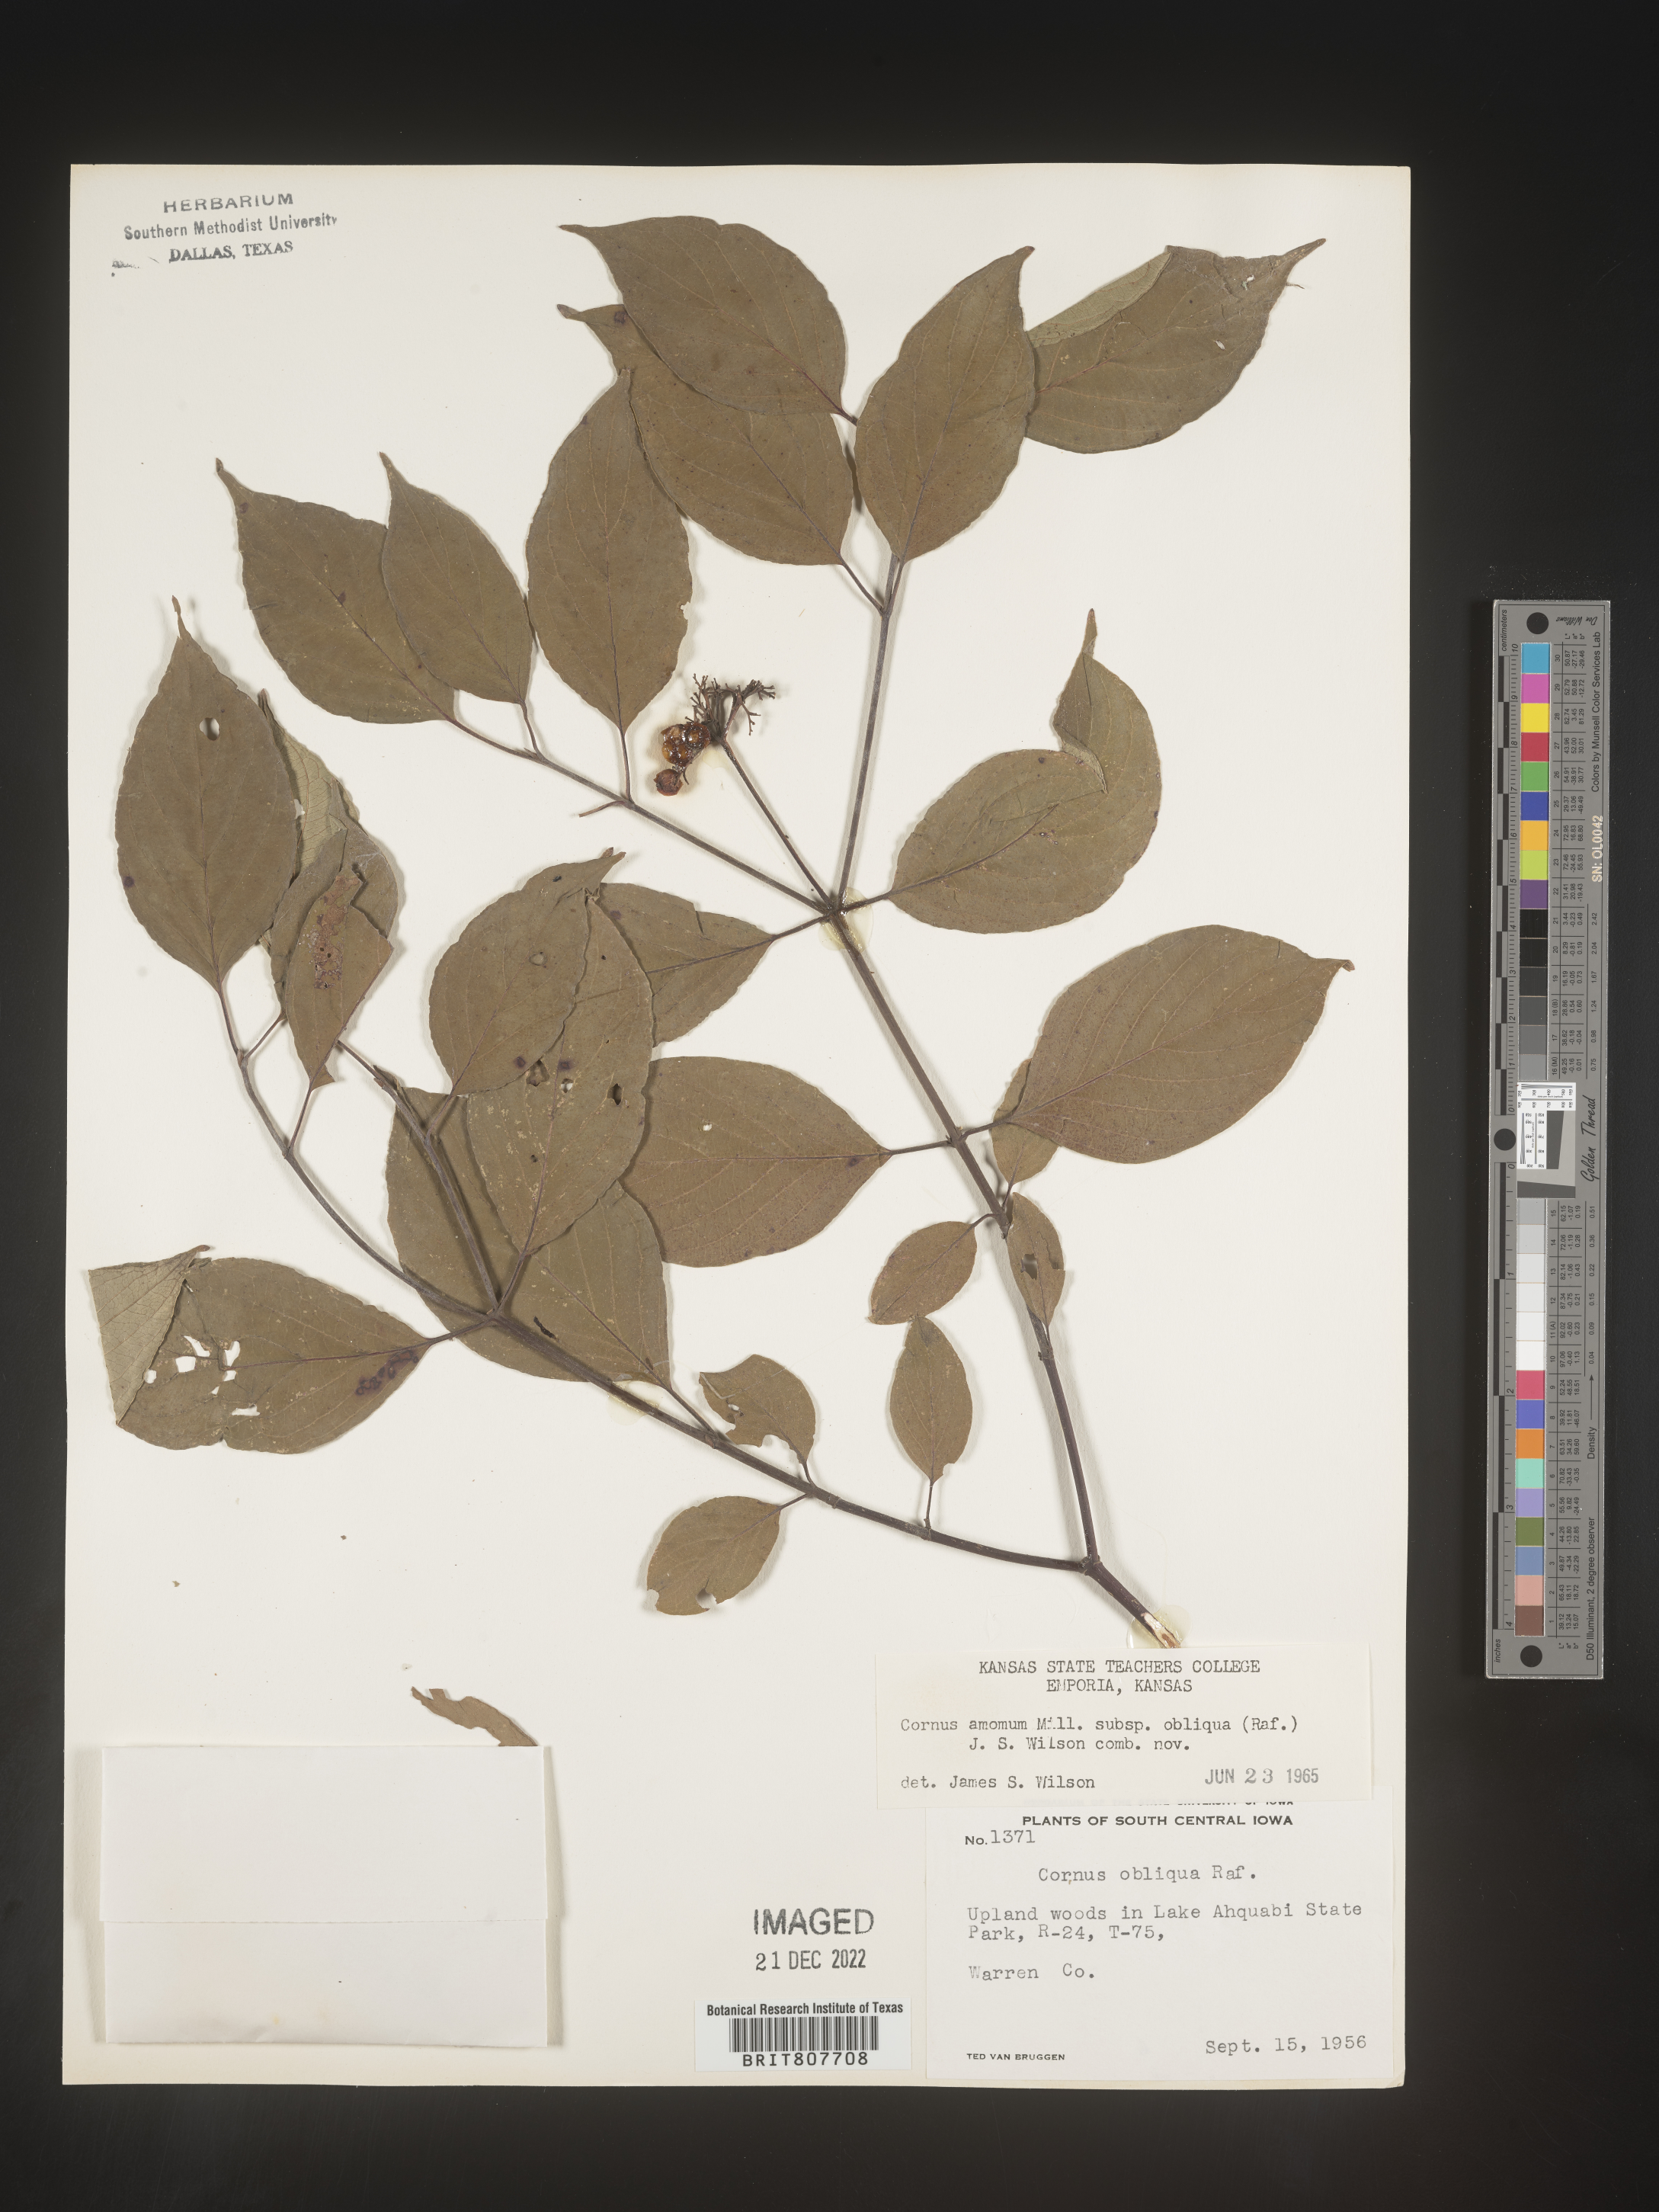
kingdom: Plantae
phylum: Tracheophyta
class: Magnoliopsida
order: Cornales
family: Cornaceae
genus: Cornus
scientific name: Cornus obliqua
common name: Pale dogwood
